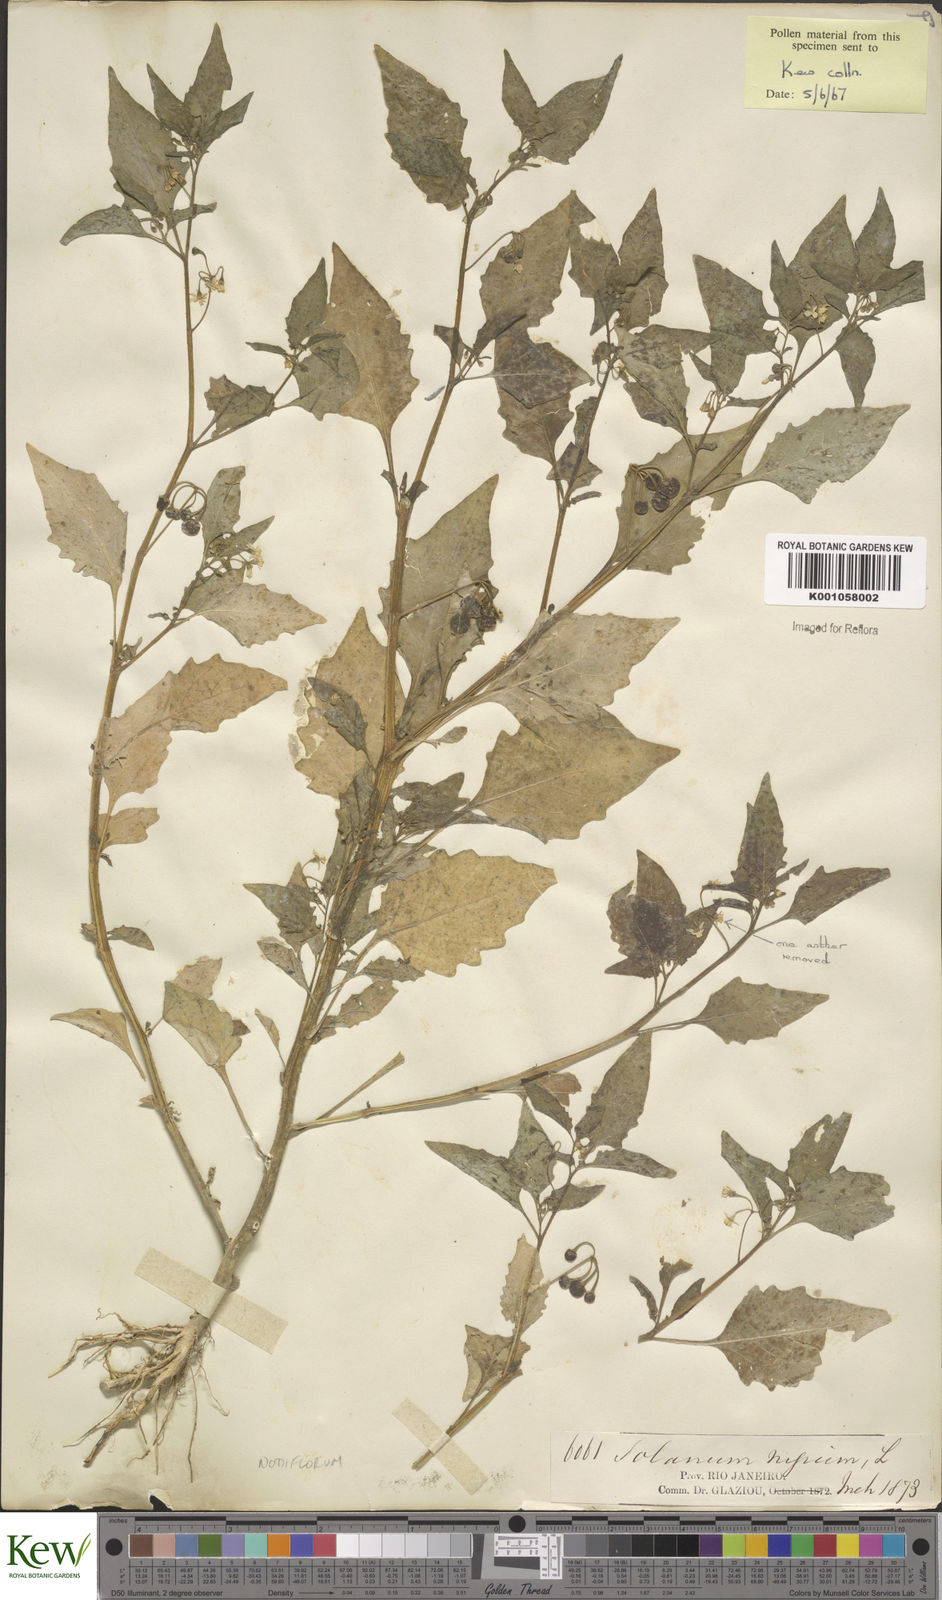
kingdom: Plantae
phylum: Tracheophyta
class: Magnoliopsida
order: Solanales
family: Solanaceae
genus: Solanum
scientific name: Solanum americanum
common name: American black nightshade
